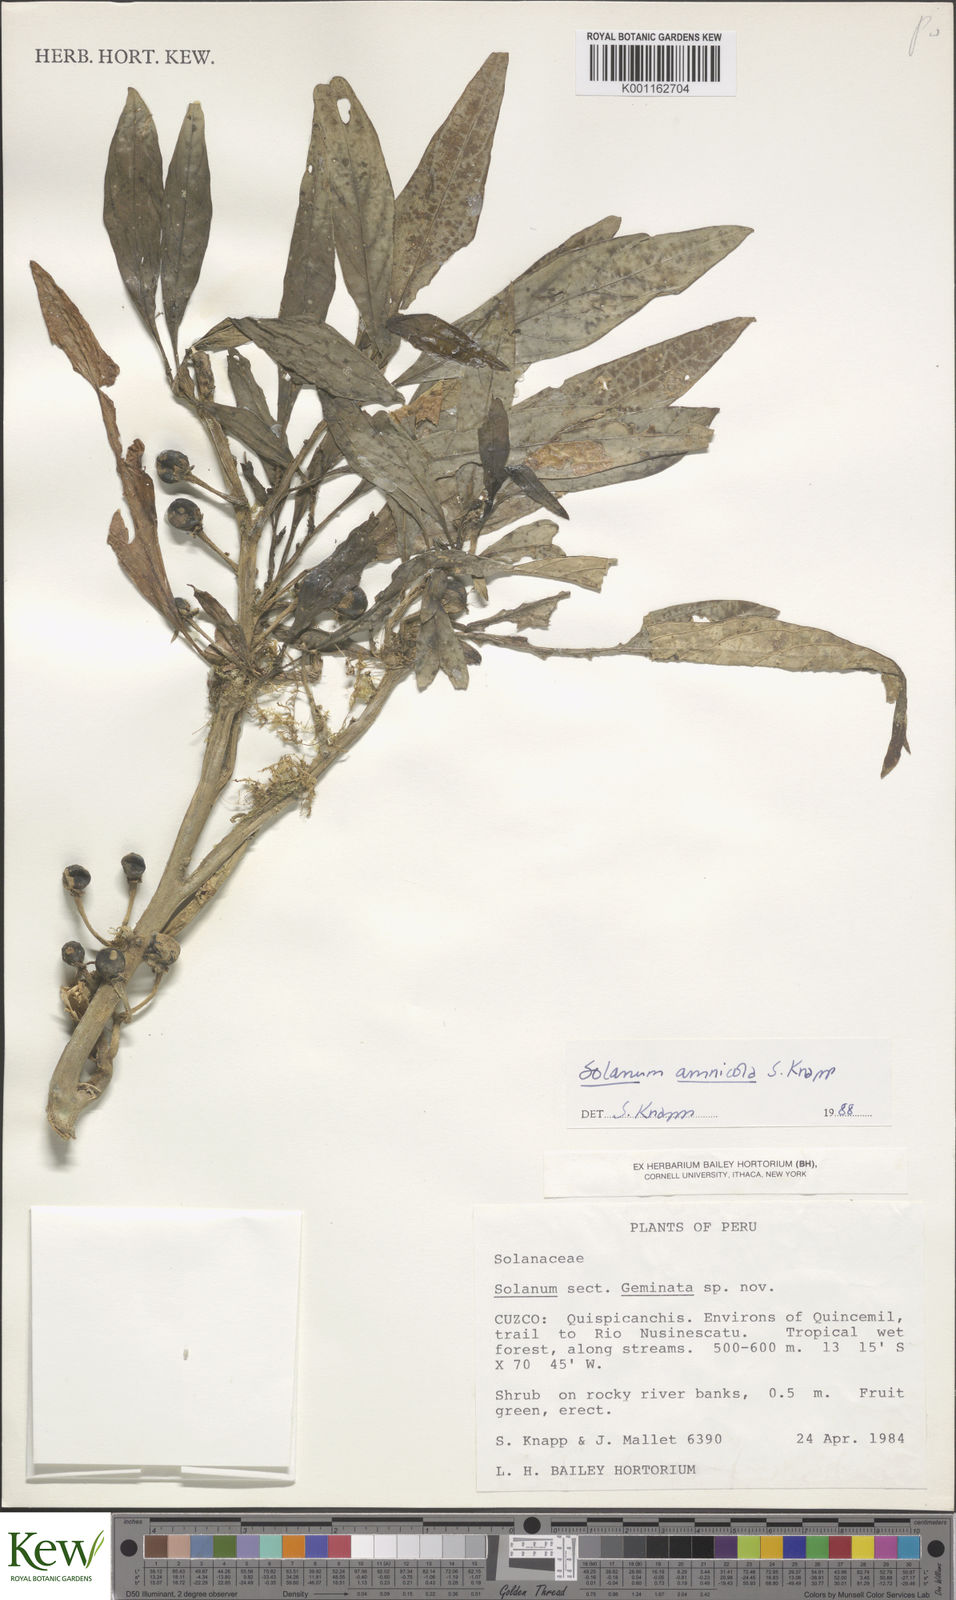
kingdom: Plantae
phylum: Tracheophyta
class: Magnoliopsida
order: Solanales
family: Solanaceae
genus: Solanum
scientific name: Solanum amnicola
